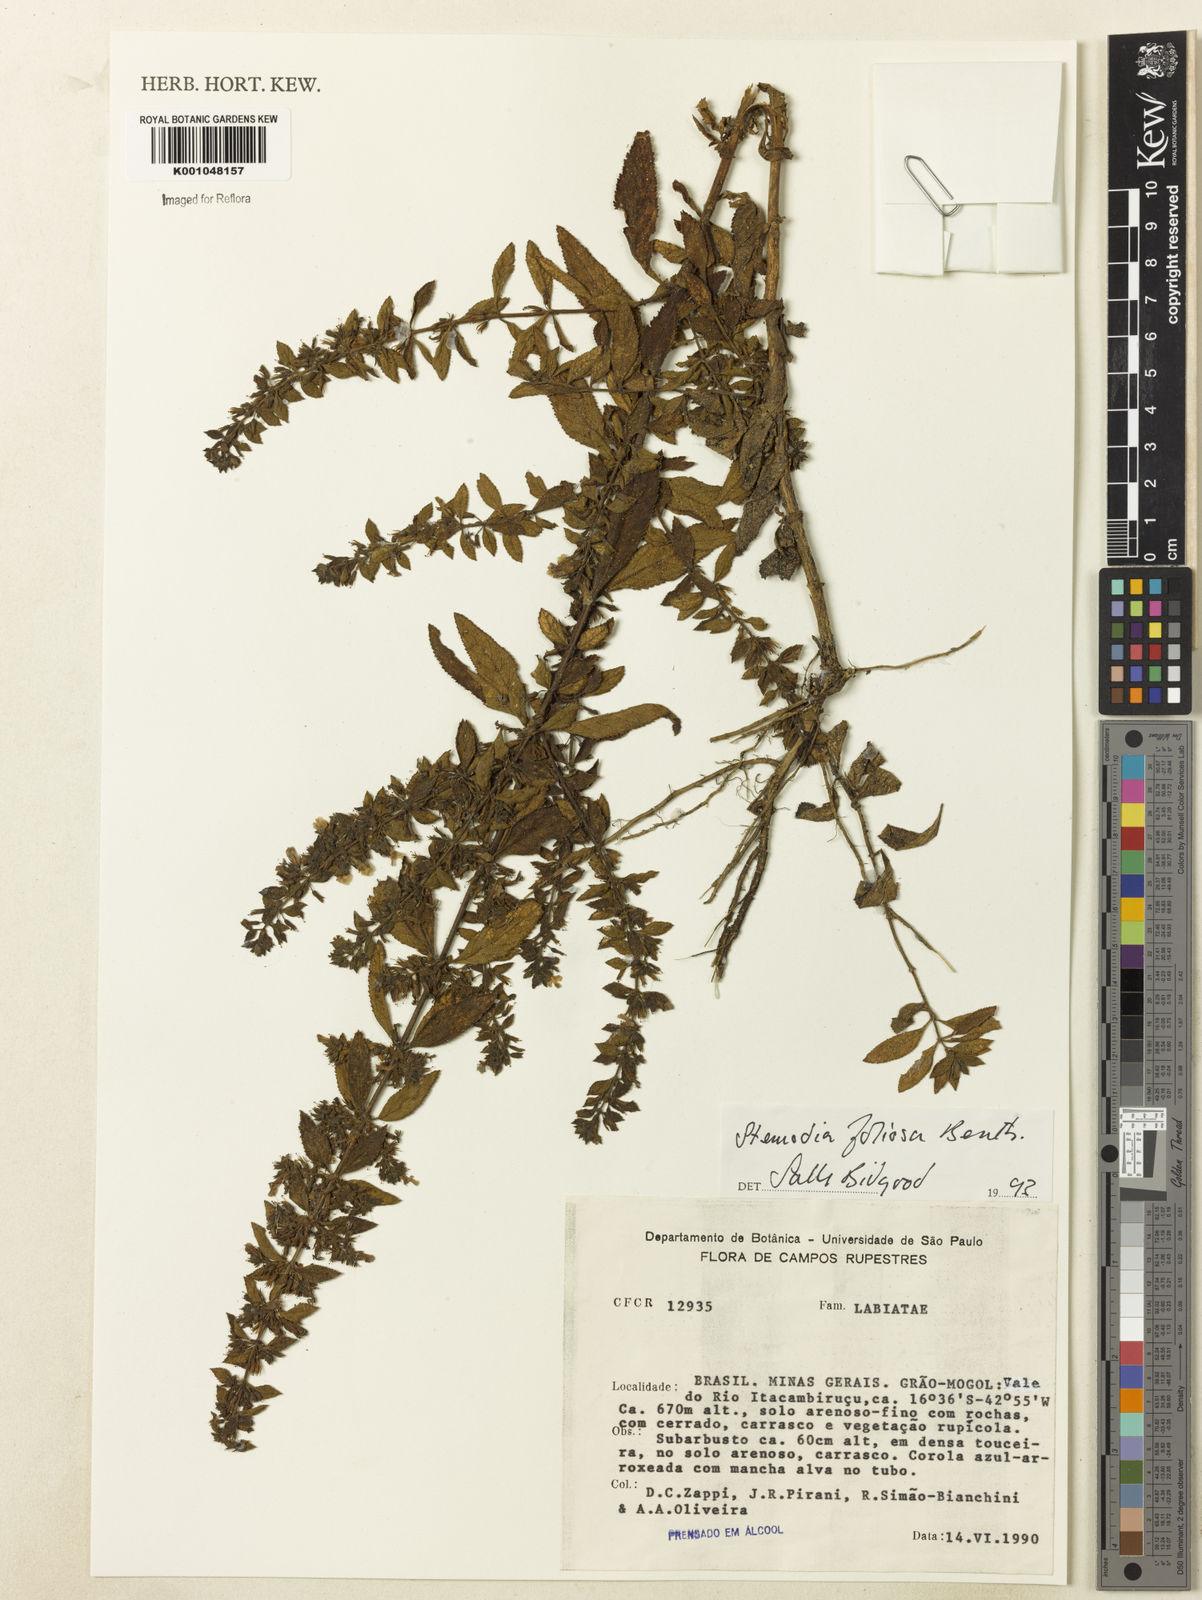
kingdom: Plantae
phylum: Tracheophyta
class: Magnoliopsida
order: Lamiales
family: Plantaginaceae
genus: Stemodia
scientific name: Stemodia foliosa
